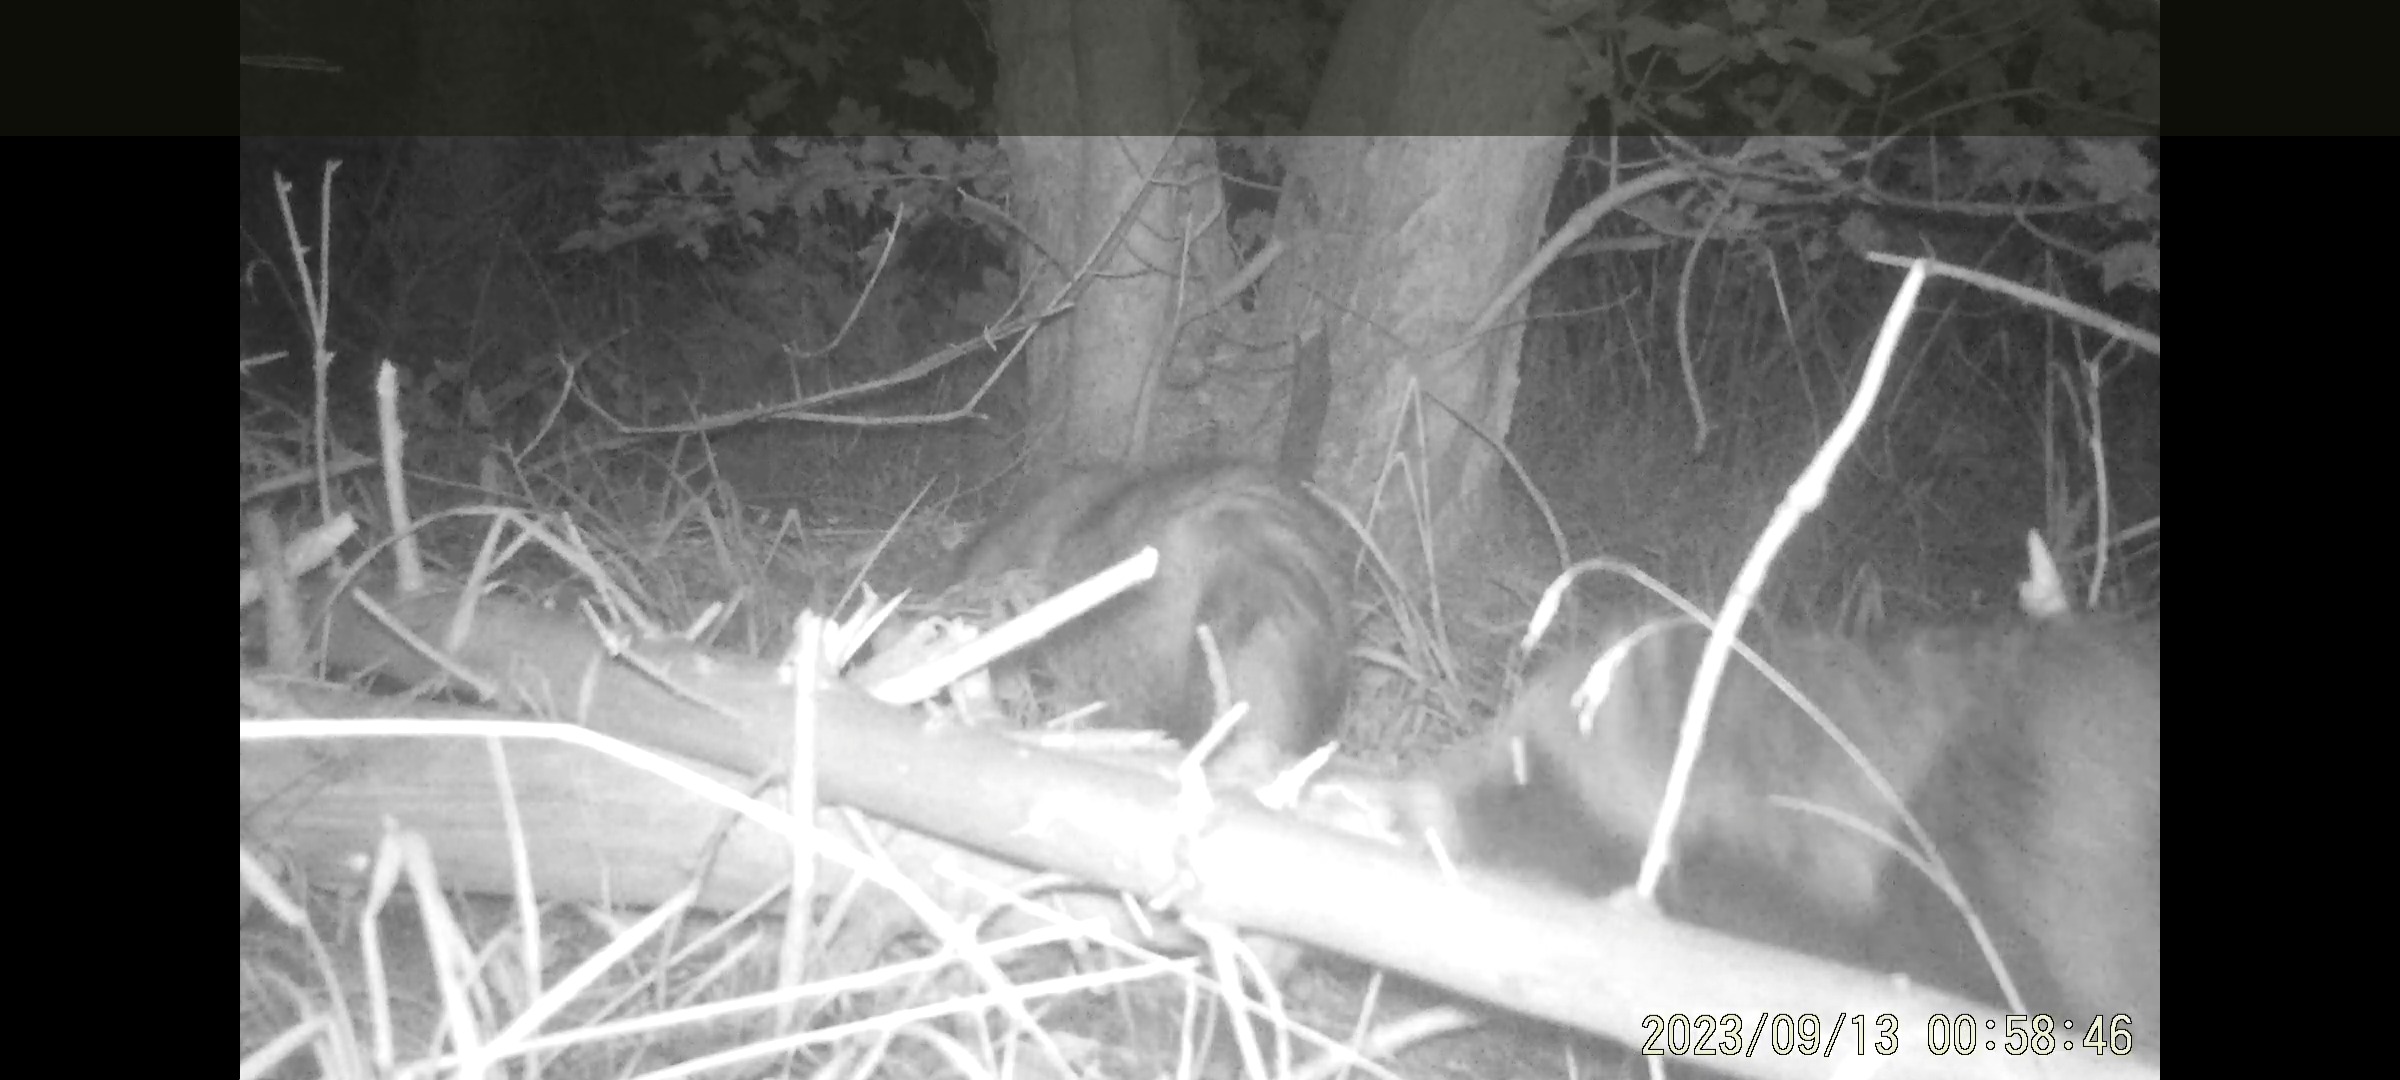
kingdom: Animalia
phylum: Chordata
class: Mammalia
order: Carnivora
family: Canidae
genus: Nyctereutes
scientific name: Nyctereutes procyonoides
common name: Mårhund
